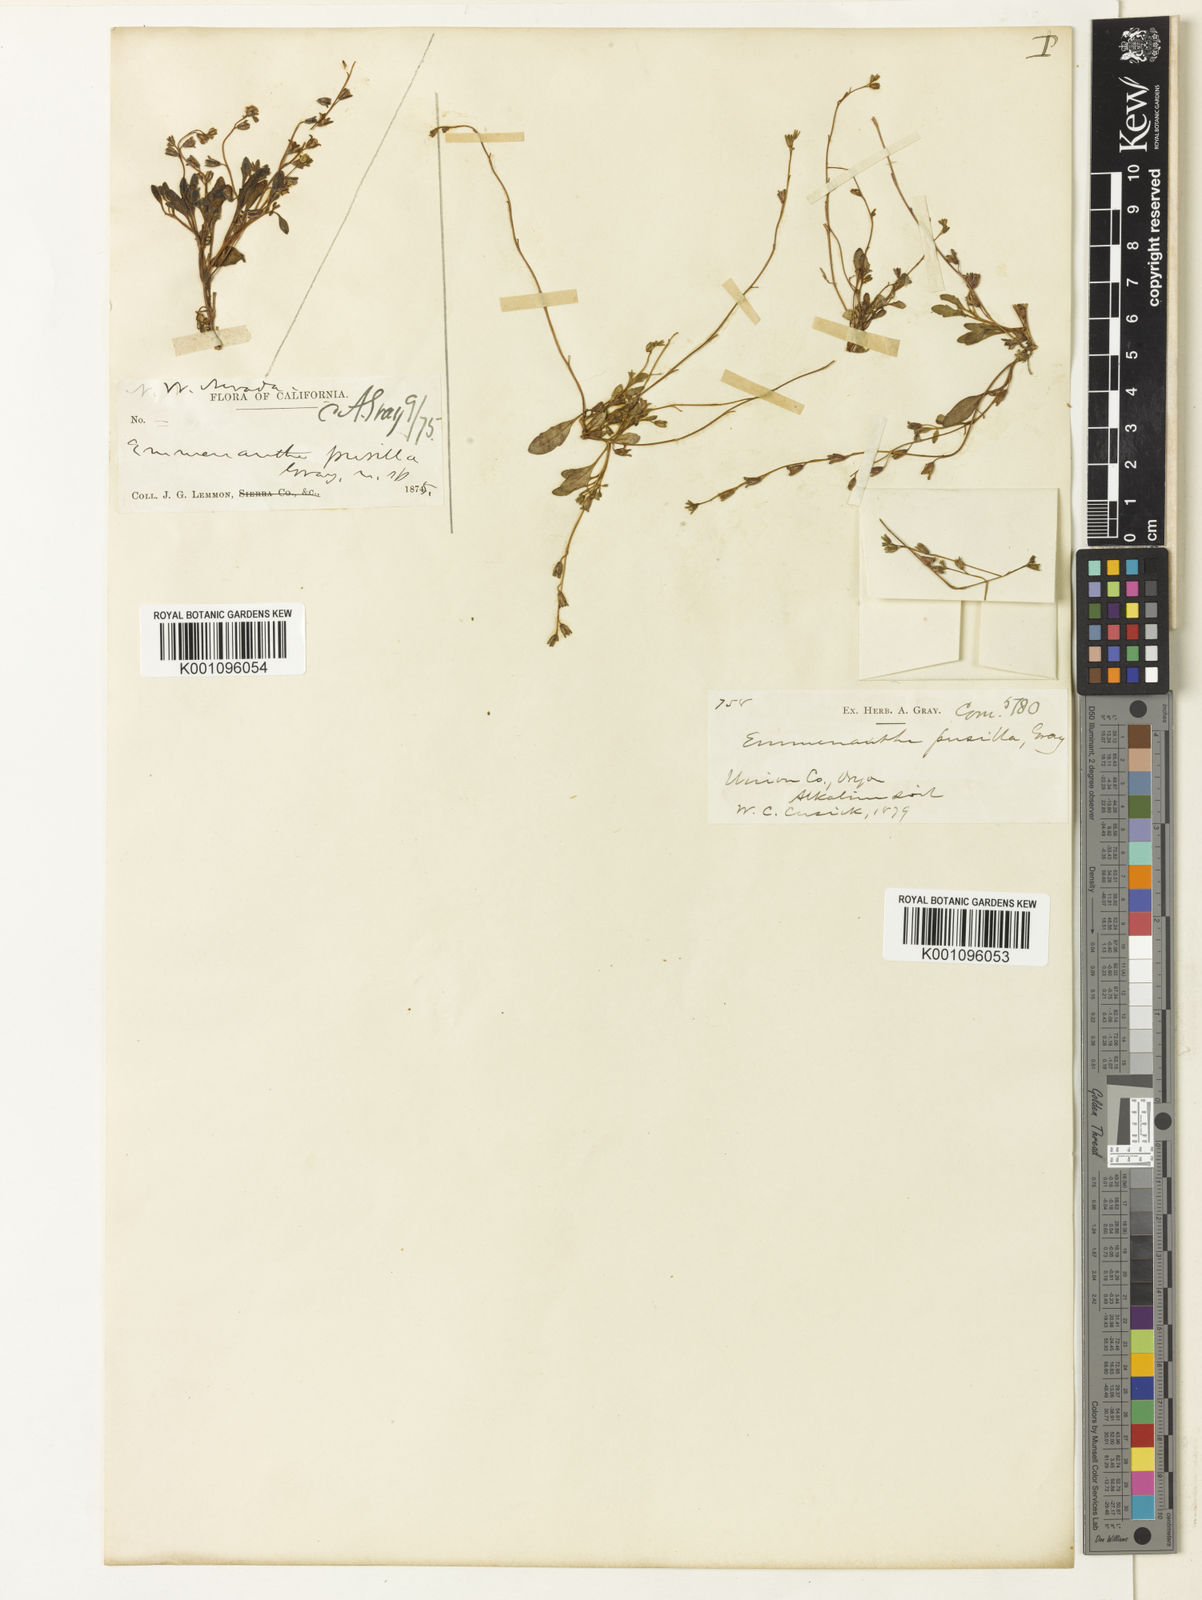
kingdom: Plantae
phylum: Tracheophyta
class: Magnoliopsida
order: Boraginales
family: Hydrophyllaceae
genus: Phacelia
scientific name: Phacelia tetramera
